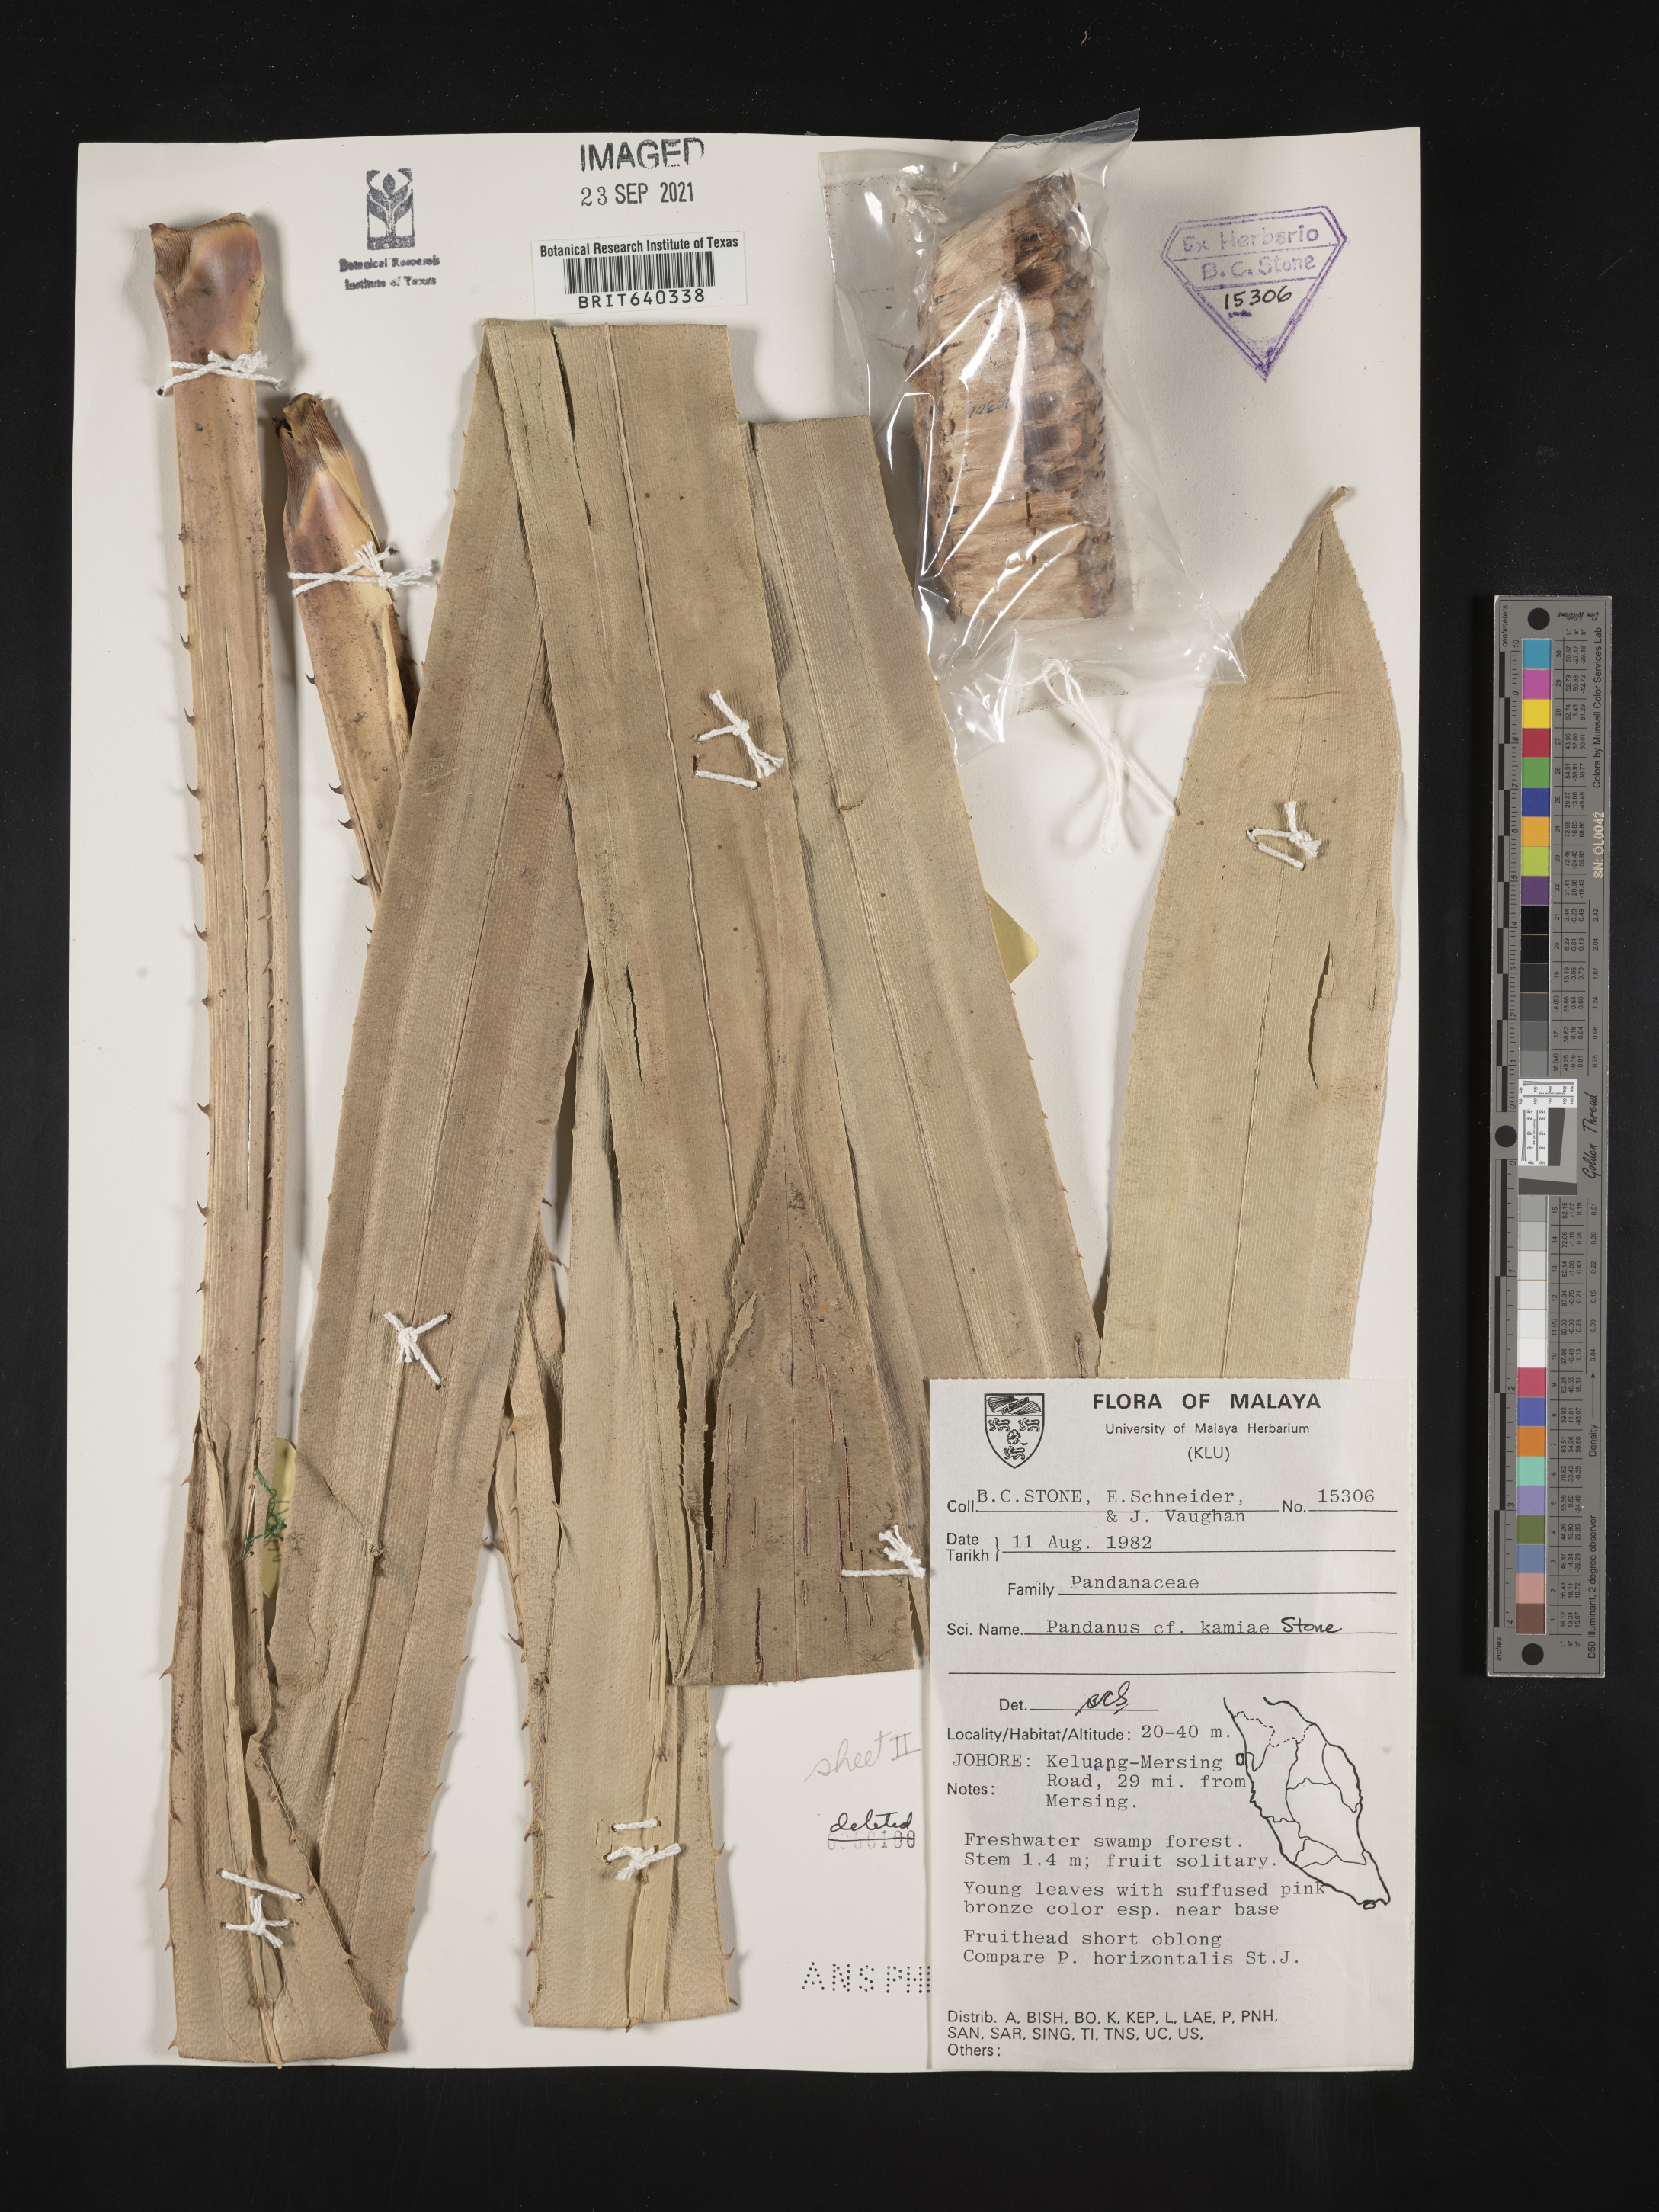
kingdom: Plantae
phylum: Tracheophyta
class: Liliopsida
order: Pandanales
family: Pandanaceae
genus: Pandanus
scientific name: Pandanus kamiae
